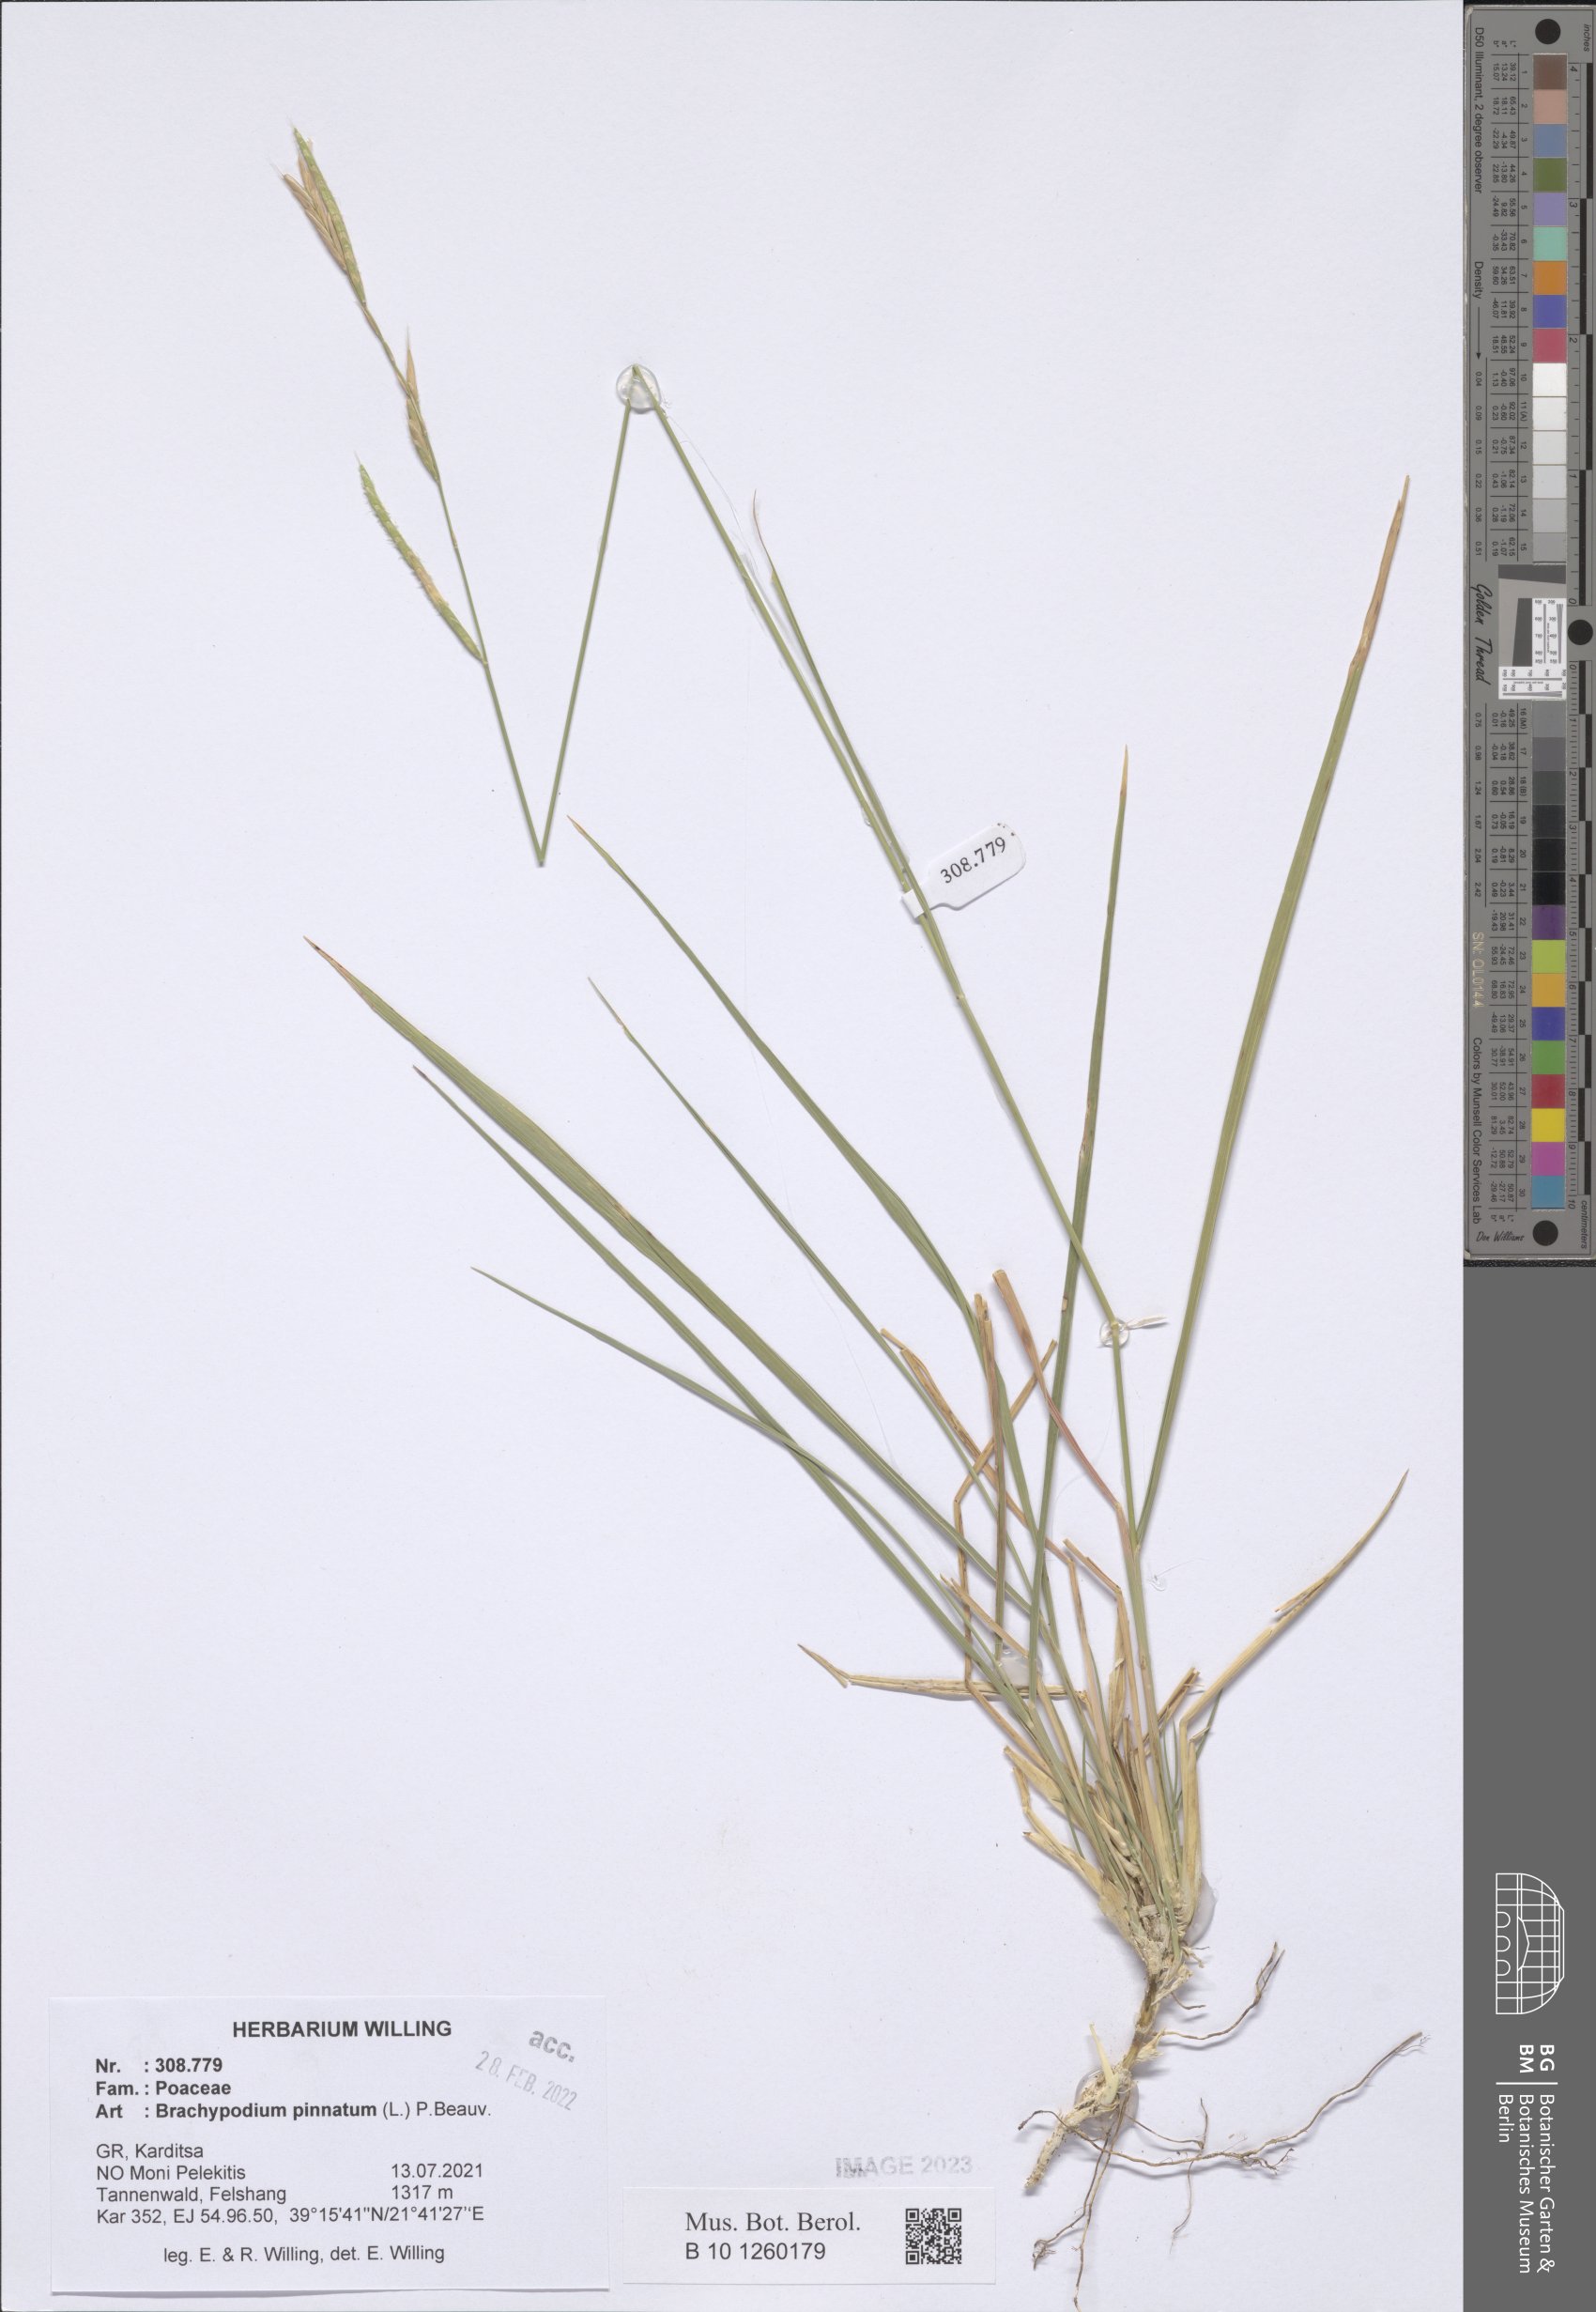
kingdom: Plantae
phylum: Tracheophyta
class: Liliopsida
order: Poales
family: Poaceae
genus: Brachypodium
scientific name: Brachypodium pinnatum
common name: Tor grass
